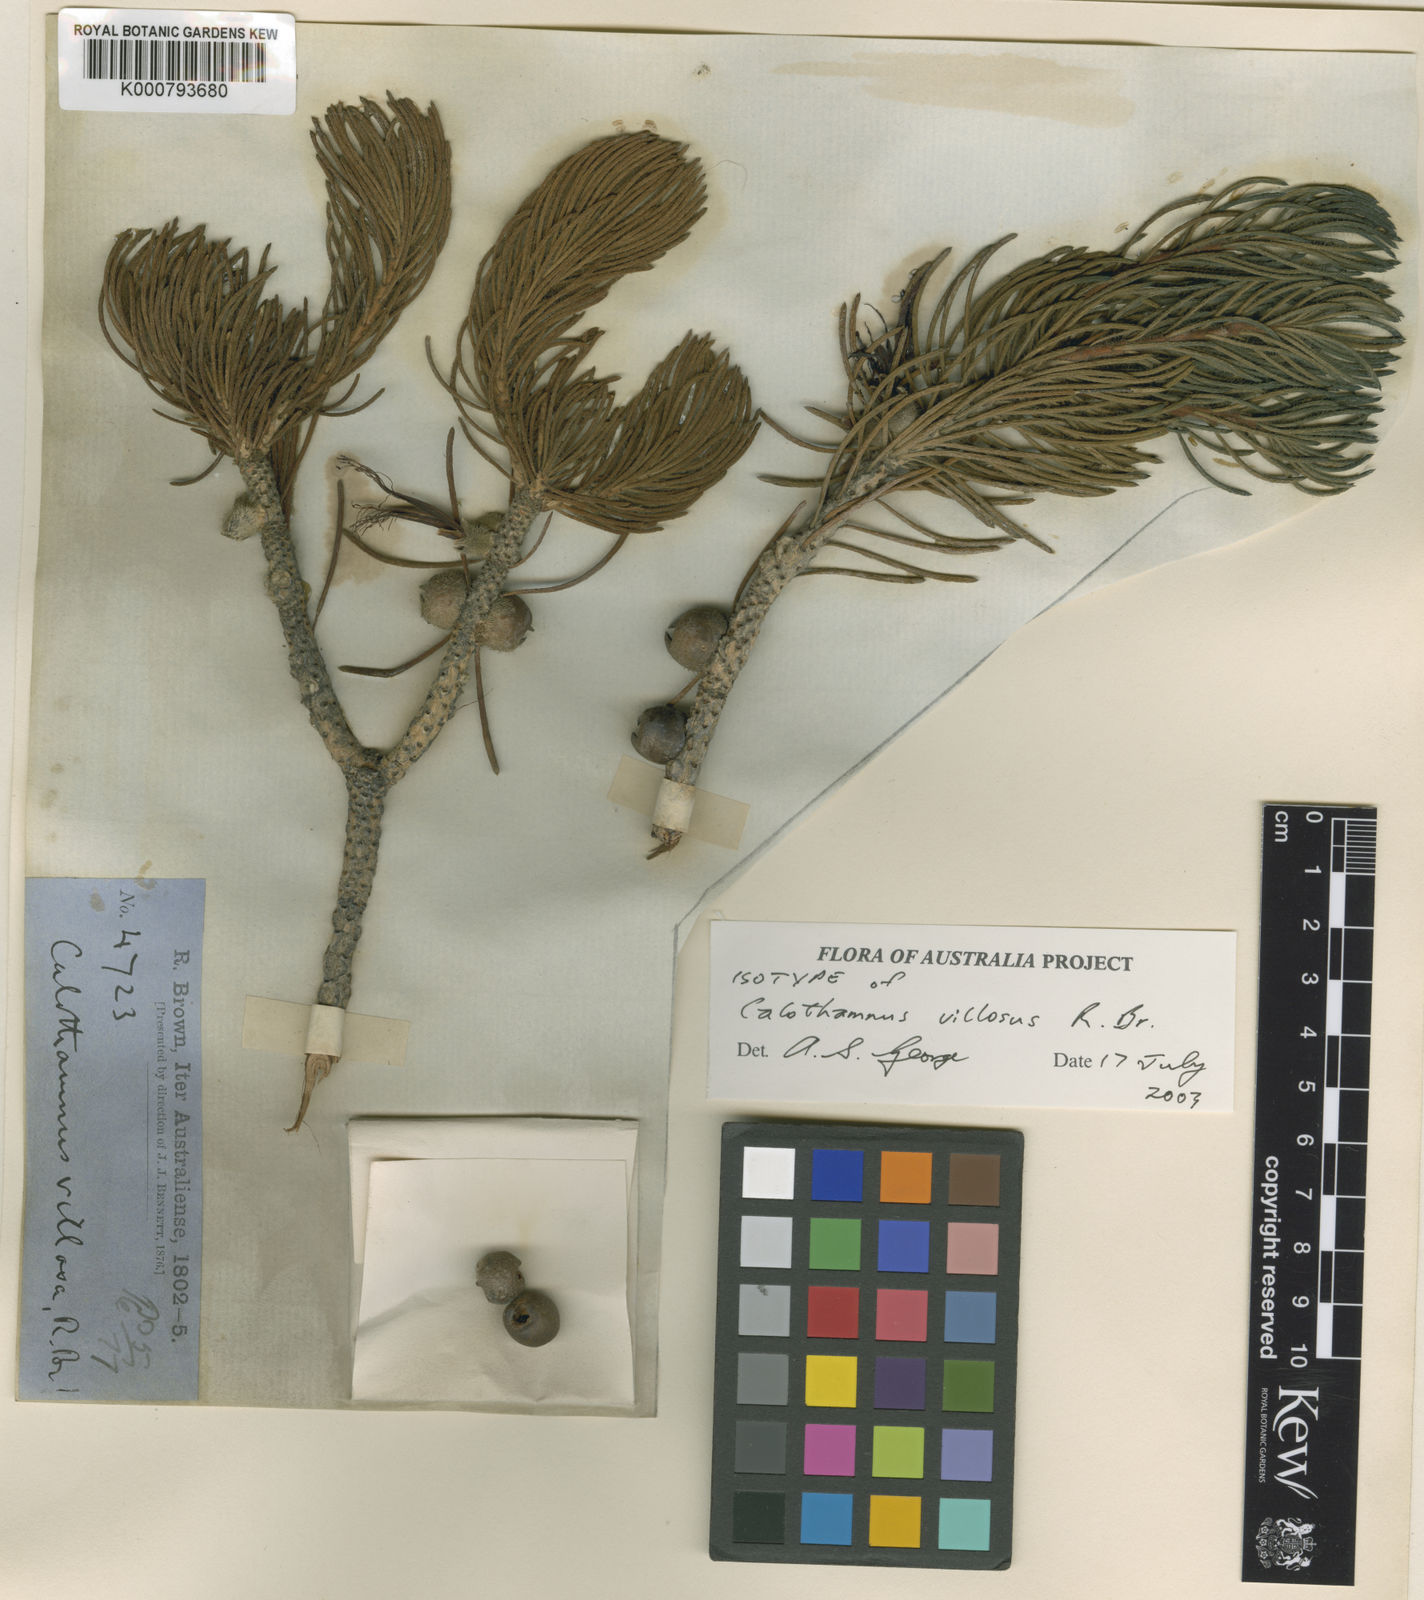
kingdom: Plantae
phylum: Tracheophyta
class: Magnoliopsida
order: Myrtales
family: Myrtaceae
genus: Melaleuca
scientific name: Melaleuca
